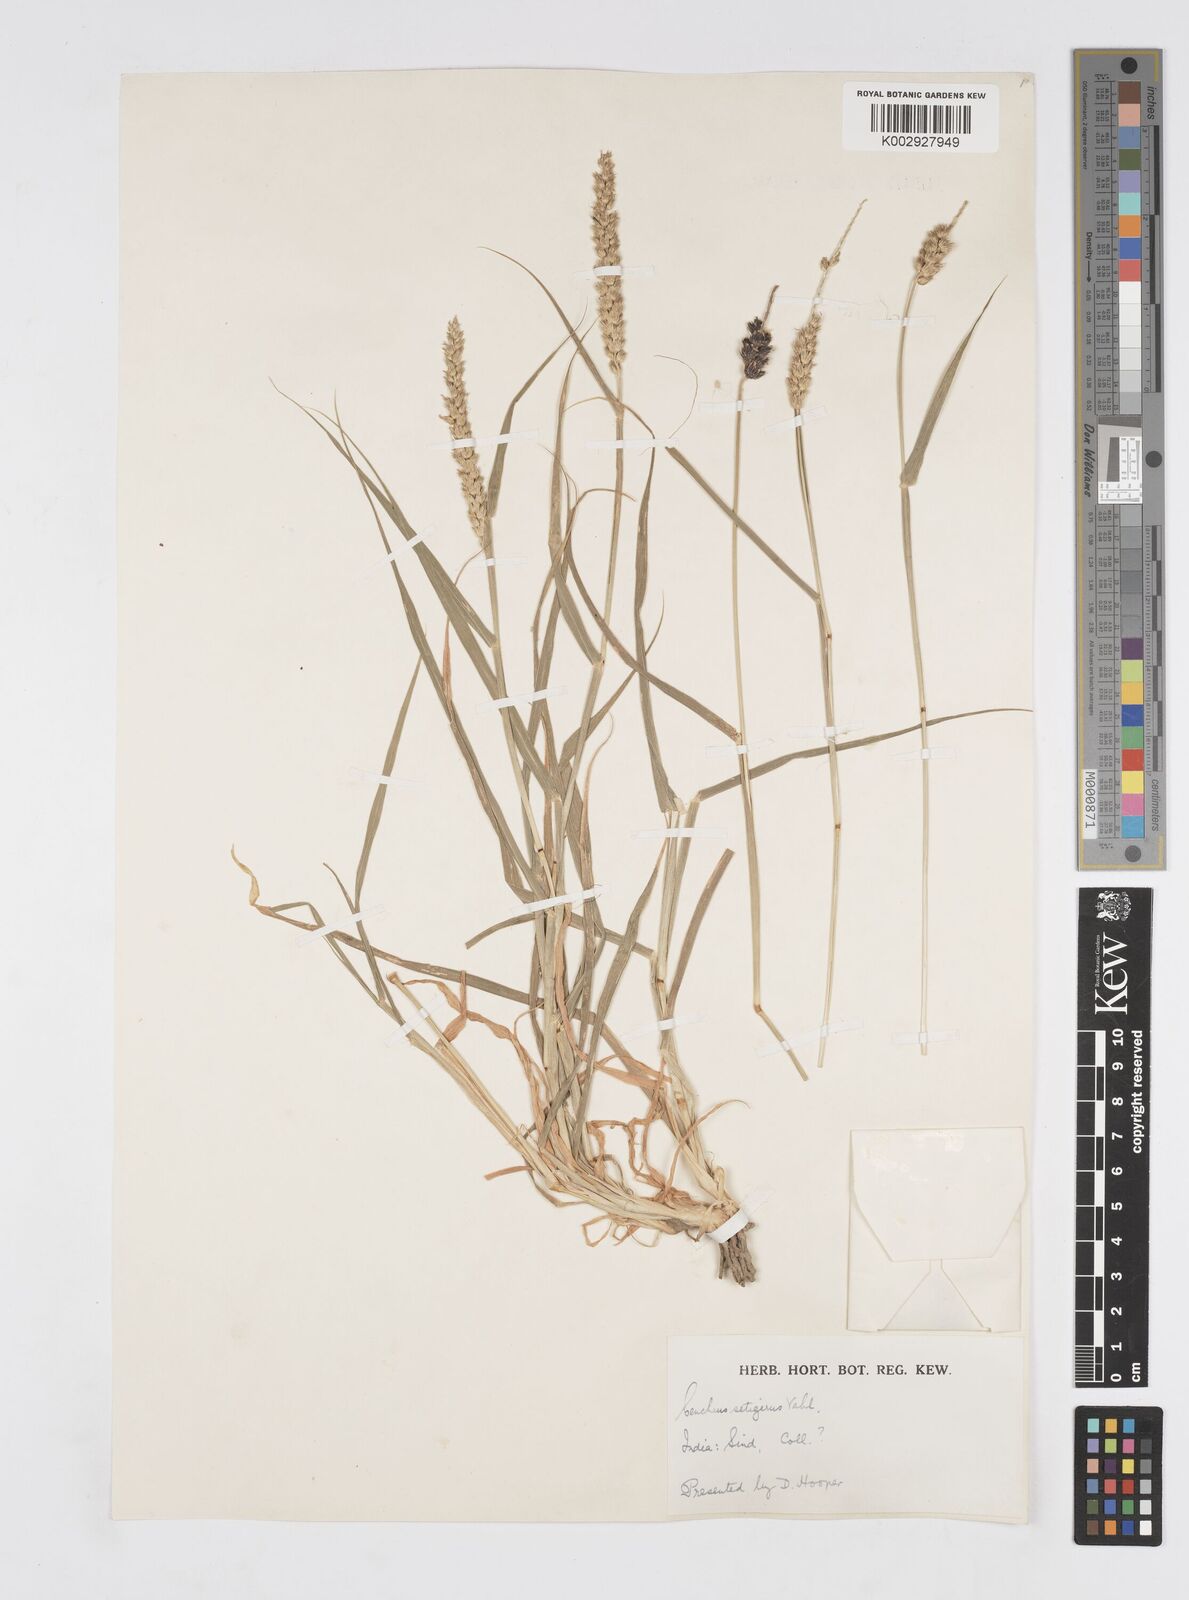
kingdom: Plantae
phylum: Tracheophyta
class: Liliopsida
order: Poales
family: Poaceae
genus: Cenchrus
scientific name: Cenchrus setigerus
